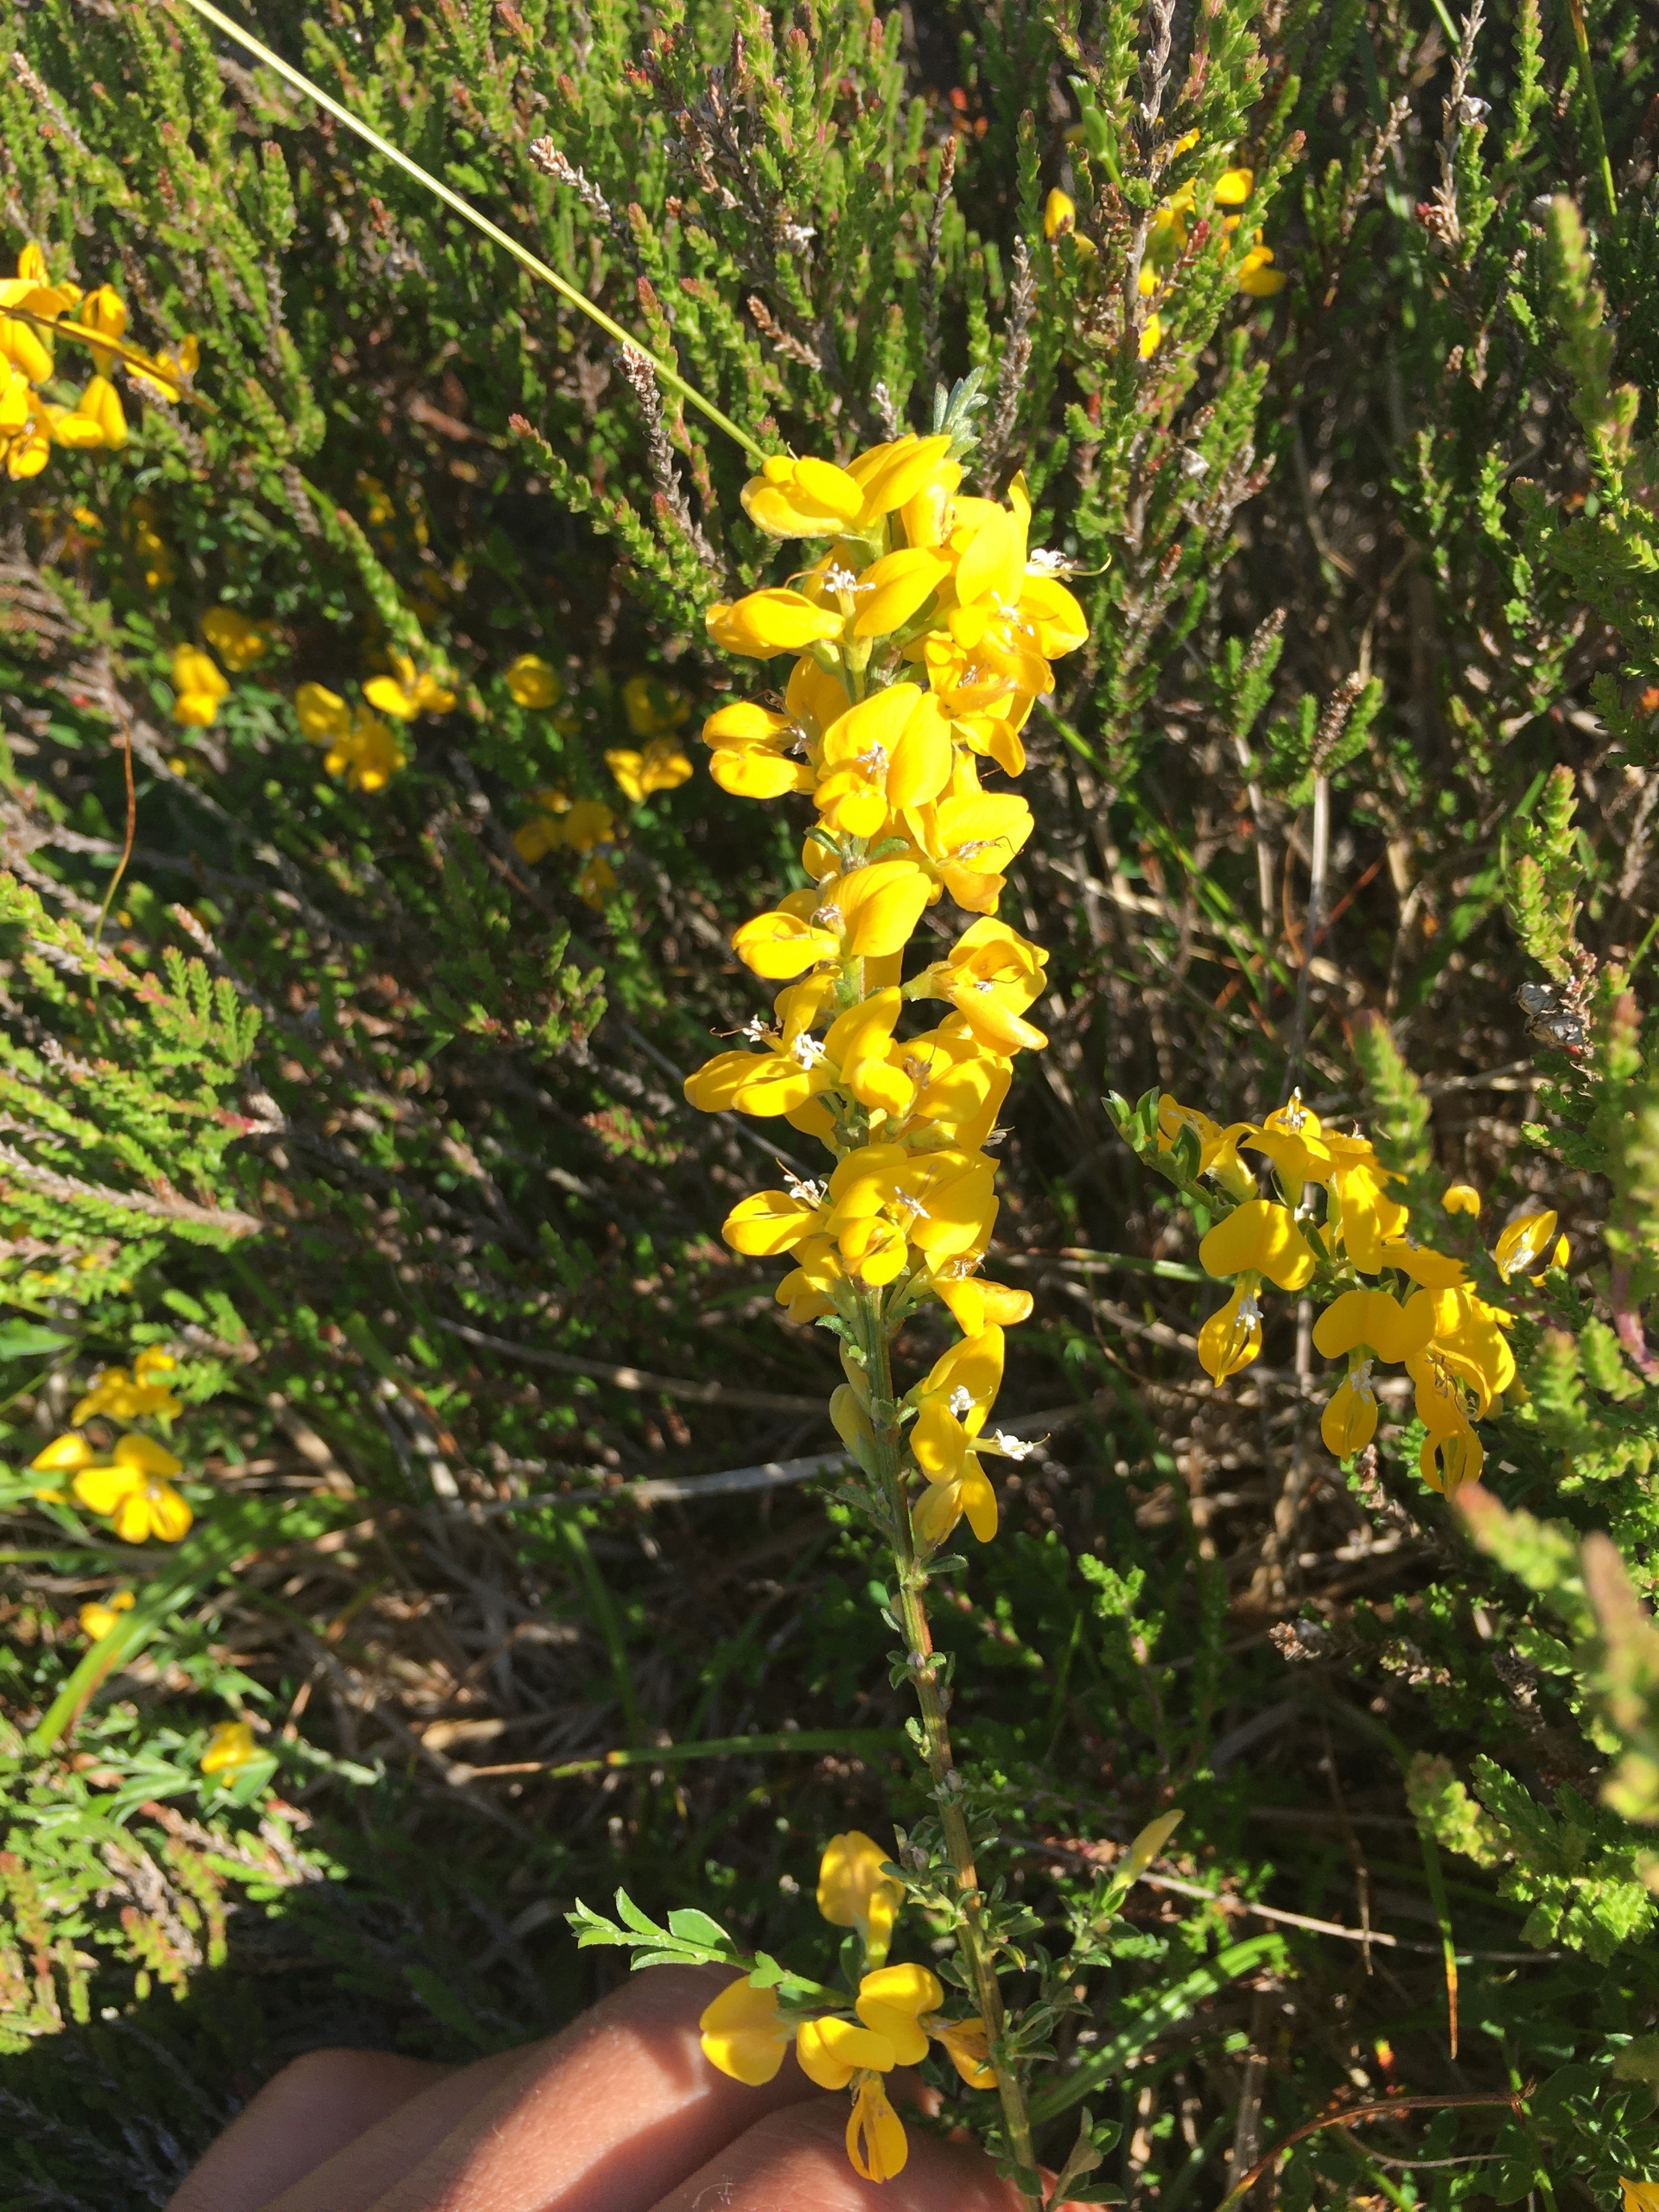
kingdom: Plantae
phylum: Tracheophyta
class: Magnoliopsida
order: Fabales
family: Fabaceae
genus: Cytisus
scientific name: Cytisus scoparius
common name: Almindelig gyvel
